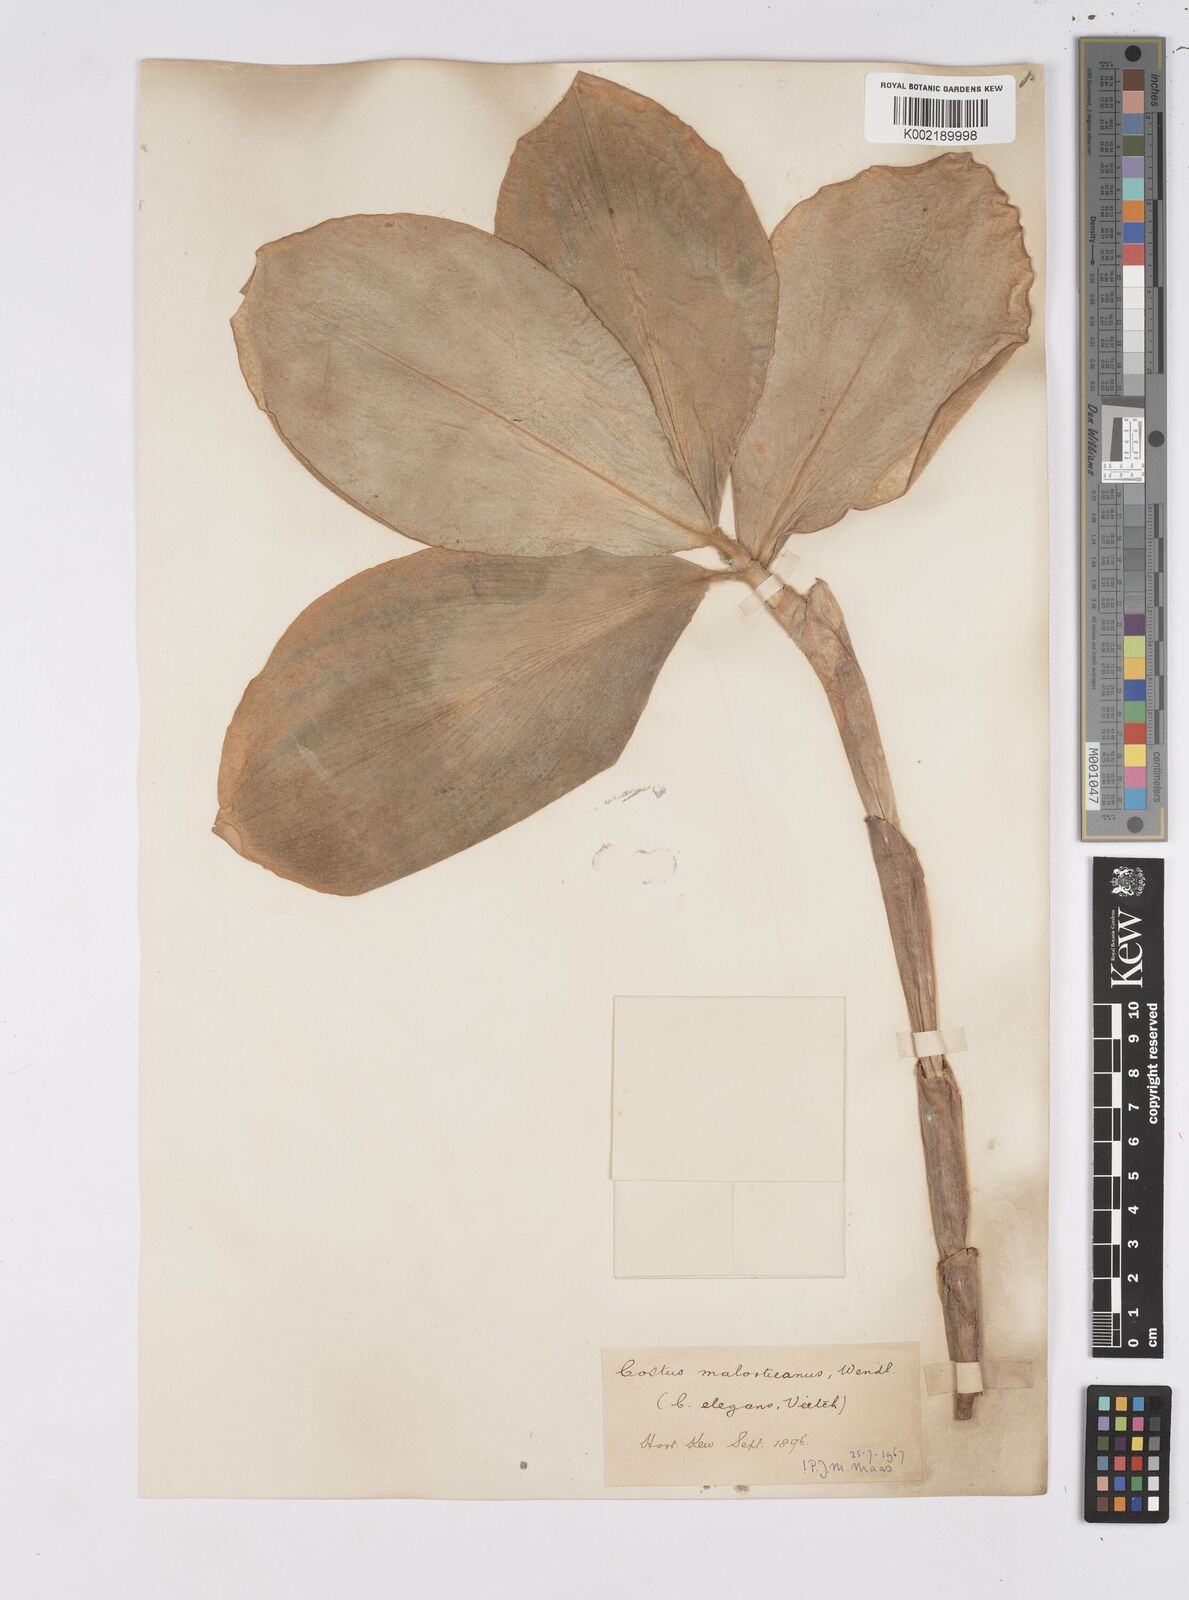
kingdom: Plantae
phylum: Tracheophyta
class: Liliopsida
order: Zingiberales
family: Costaceae
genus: Costus
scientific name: Costus elegans
